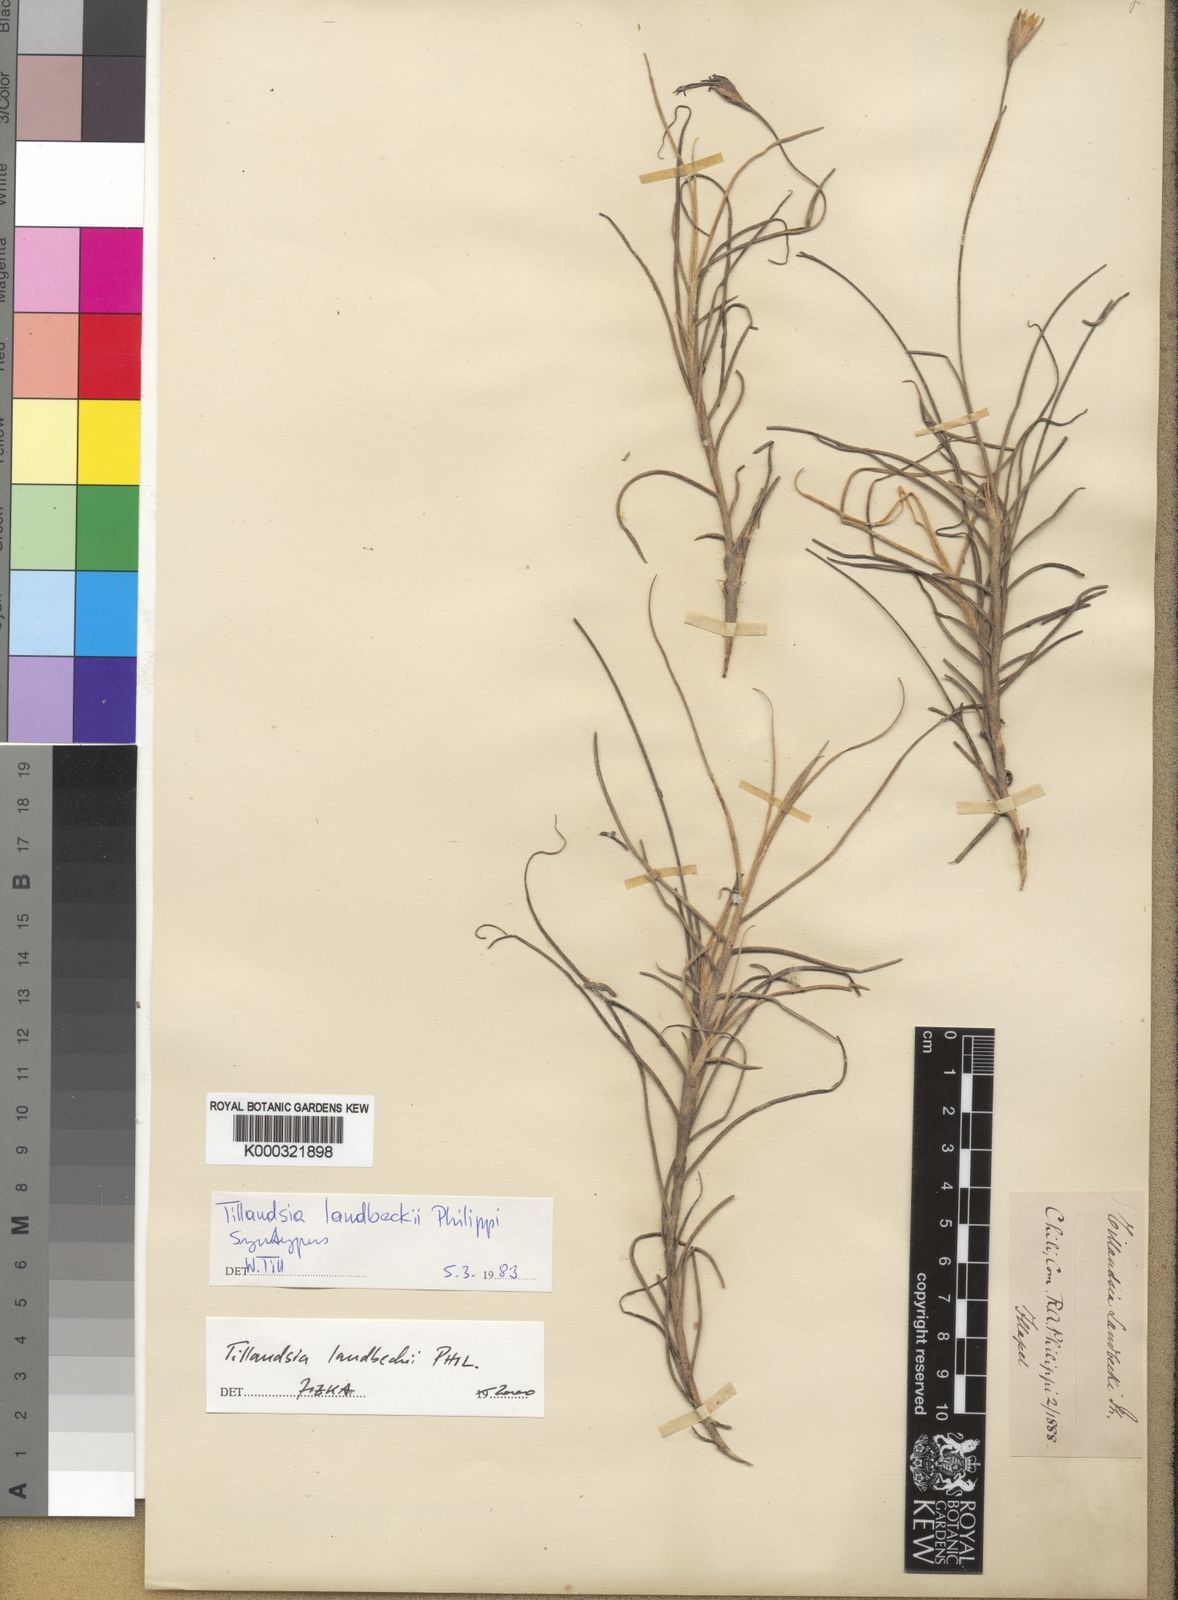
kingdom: Plantae
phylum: Tracheophyta
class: Liliopsida
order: Poales
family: Bromeliaceae
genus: Tillandsia
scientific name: Tillandsia landbeckii
